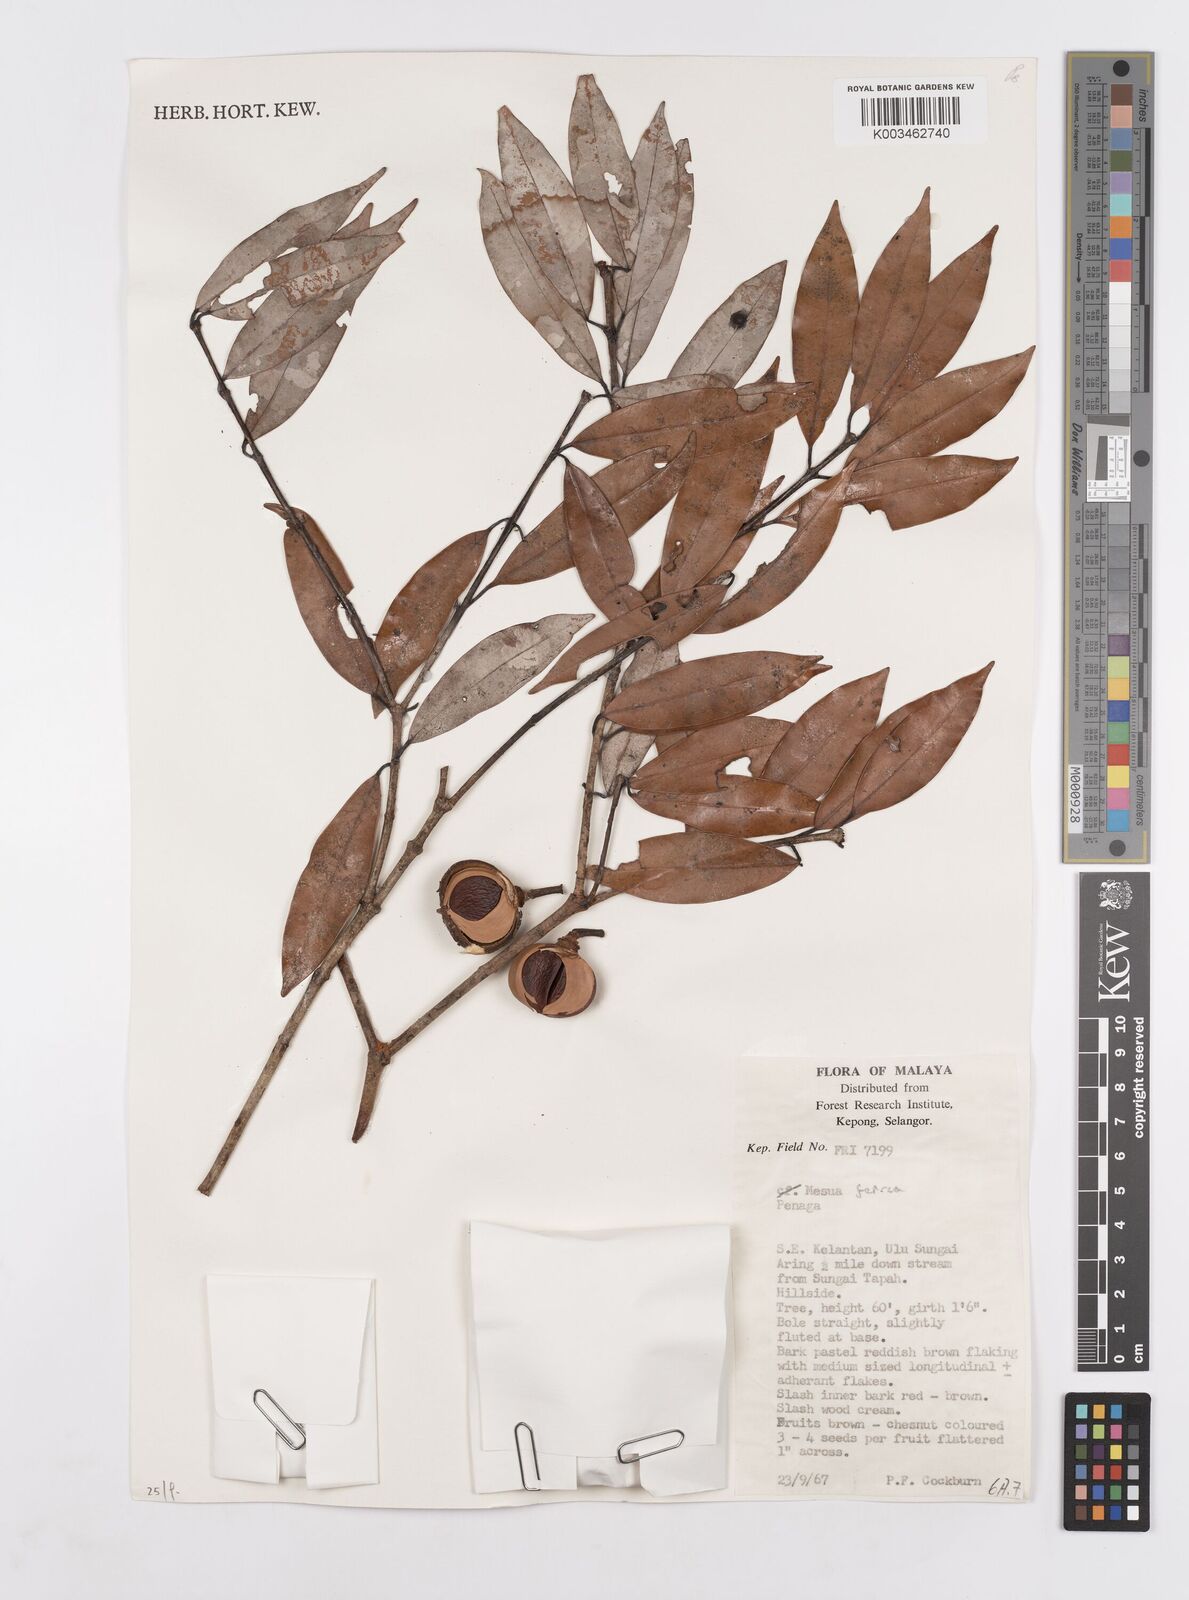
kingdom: Plantae
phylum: Tracheophyta
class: Magnoliopsida
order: Malpighiales
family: Calophyllaceae
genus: Mesua
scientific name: Mesua ferrea
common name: Mesua
